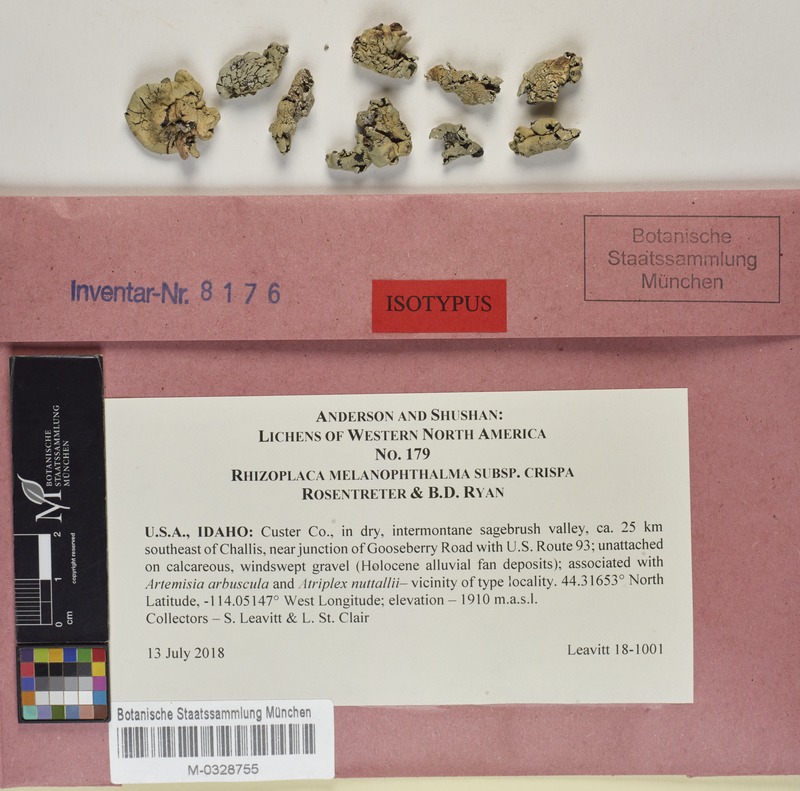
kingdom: Fungi
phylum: Ascomycota
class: Lecanoromycetes
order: Lecanorales
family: Lecanoraceae
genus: Rhizoplaca
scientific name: Rhizoplaca melanophthalma
